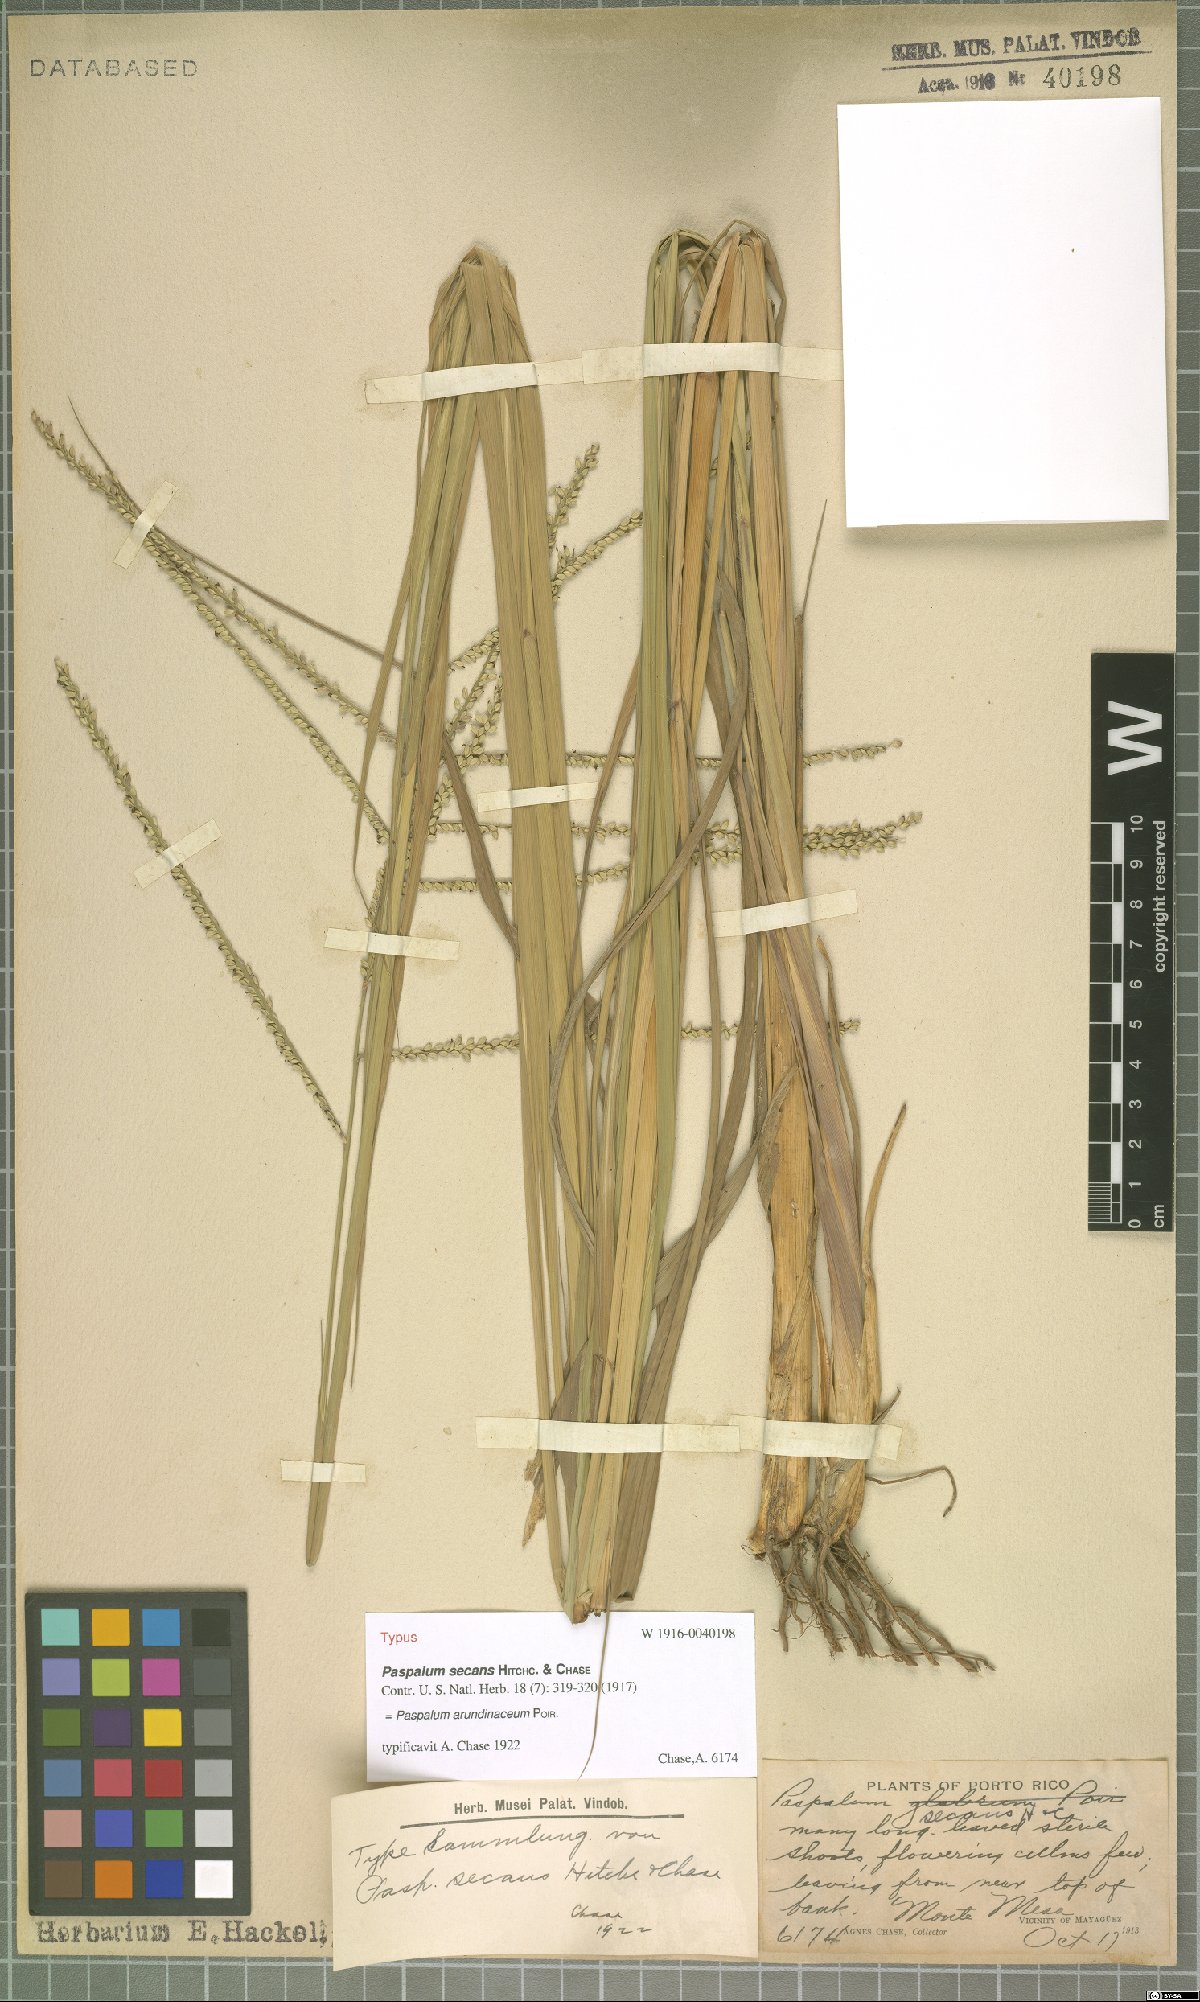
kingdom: Plantae
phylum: Tracheophyta
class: Liliopsida
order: Poales
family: Poaceae
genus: Paspalum
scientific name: Paspalum arundinaceum
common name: Thick ditch crowngrass
